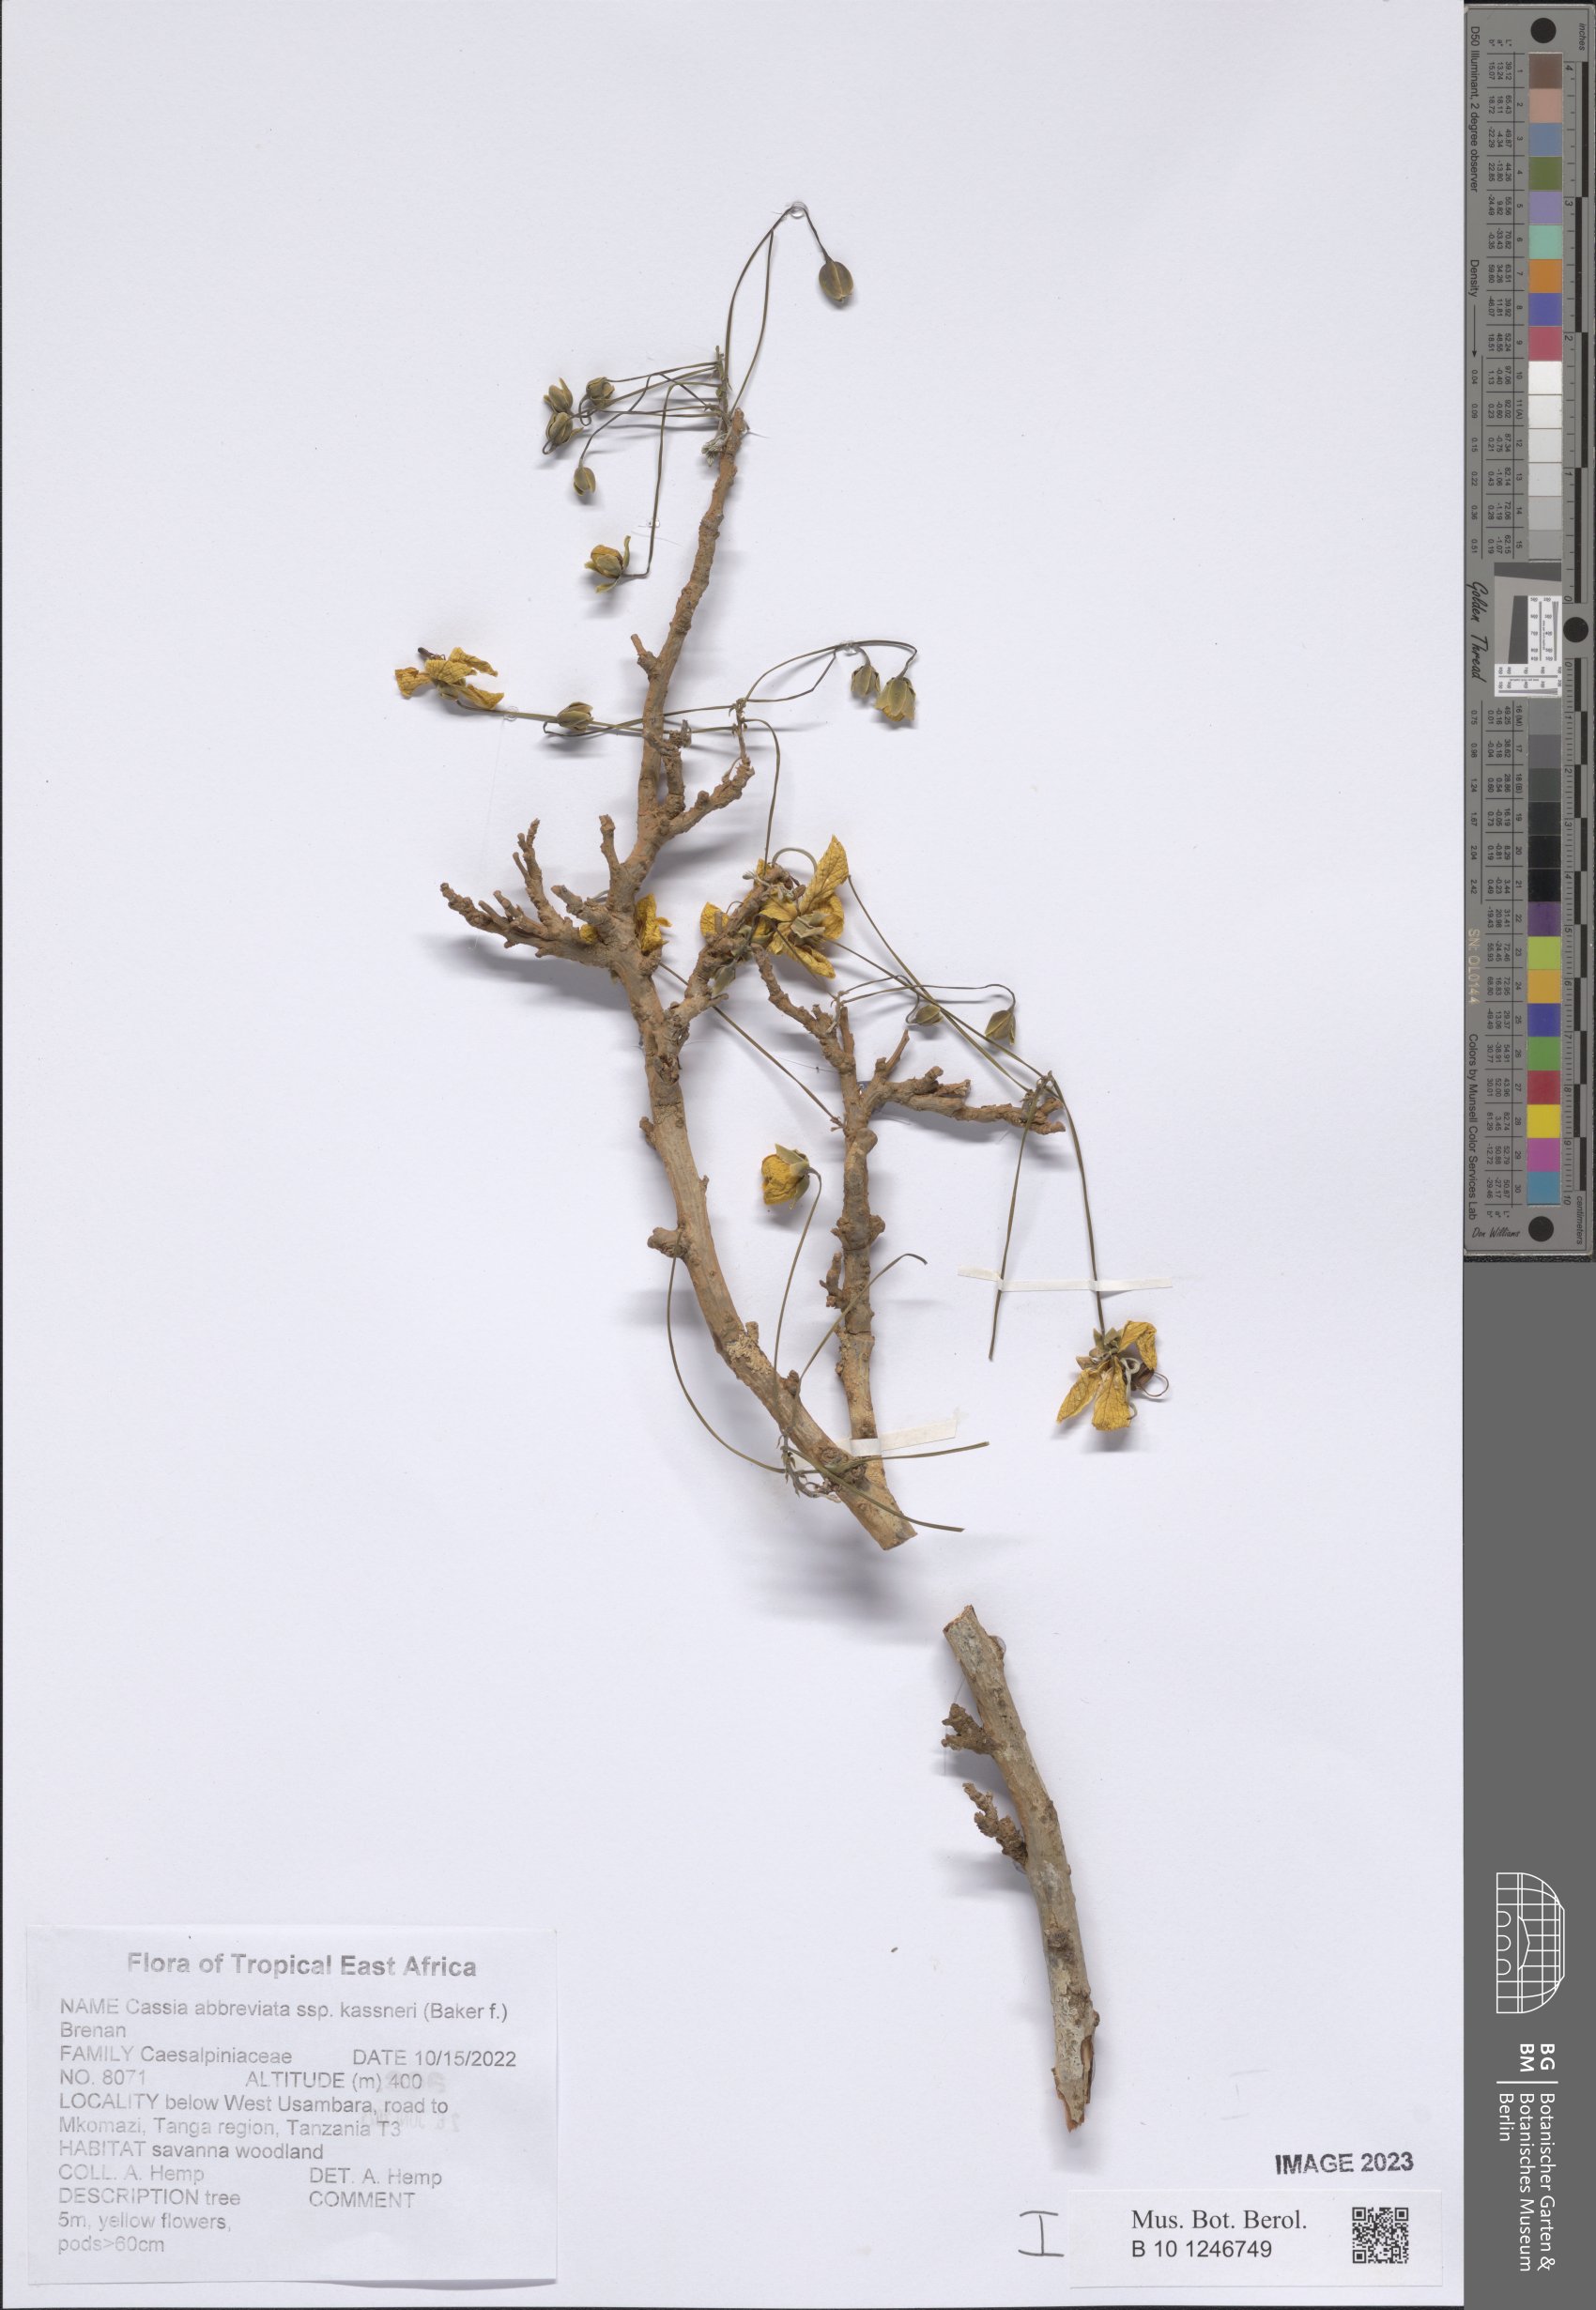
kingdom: Plantae
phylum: Tracheophyta
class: Magnoliopsida
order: Fabales
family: Fabaceae
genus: Cassia
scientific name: Cassia abbreviata
